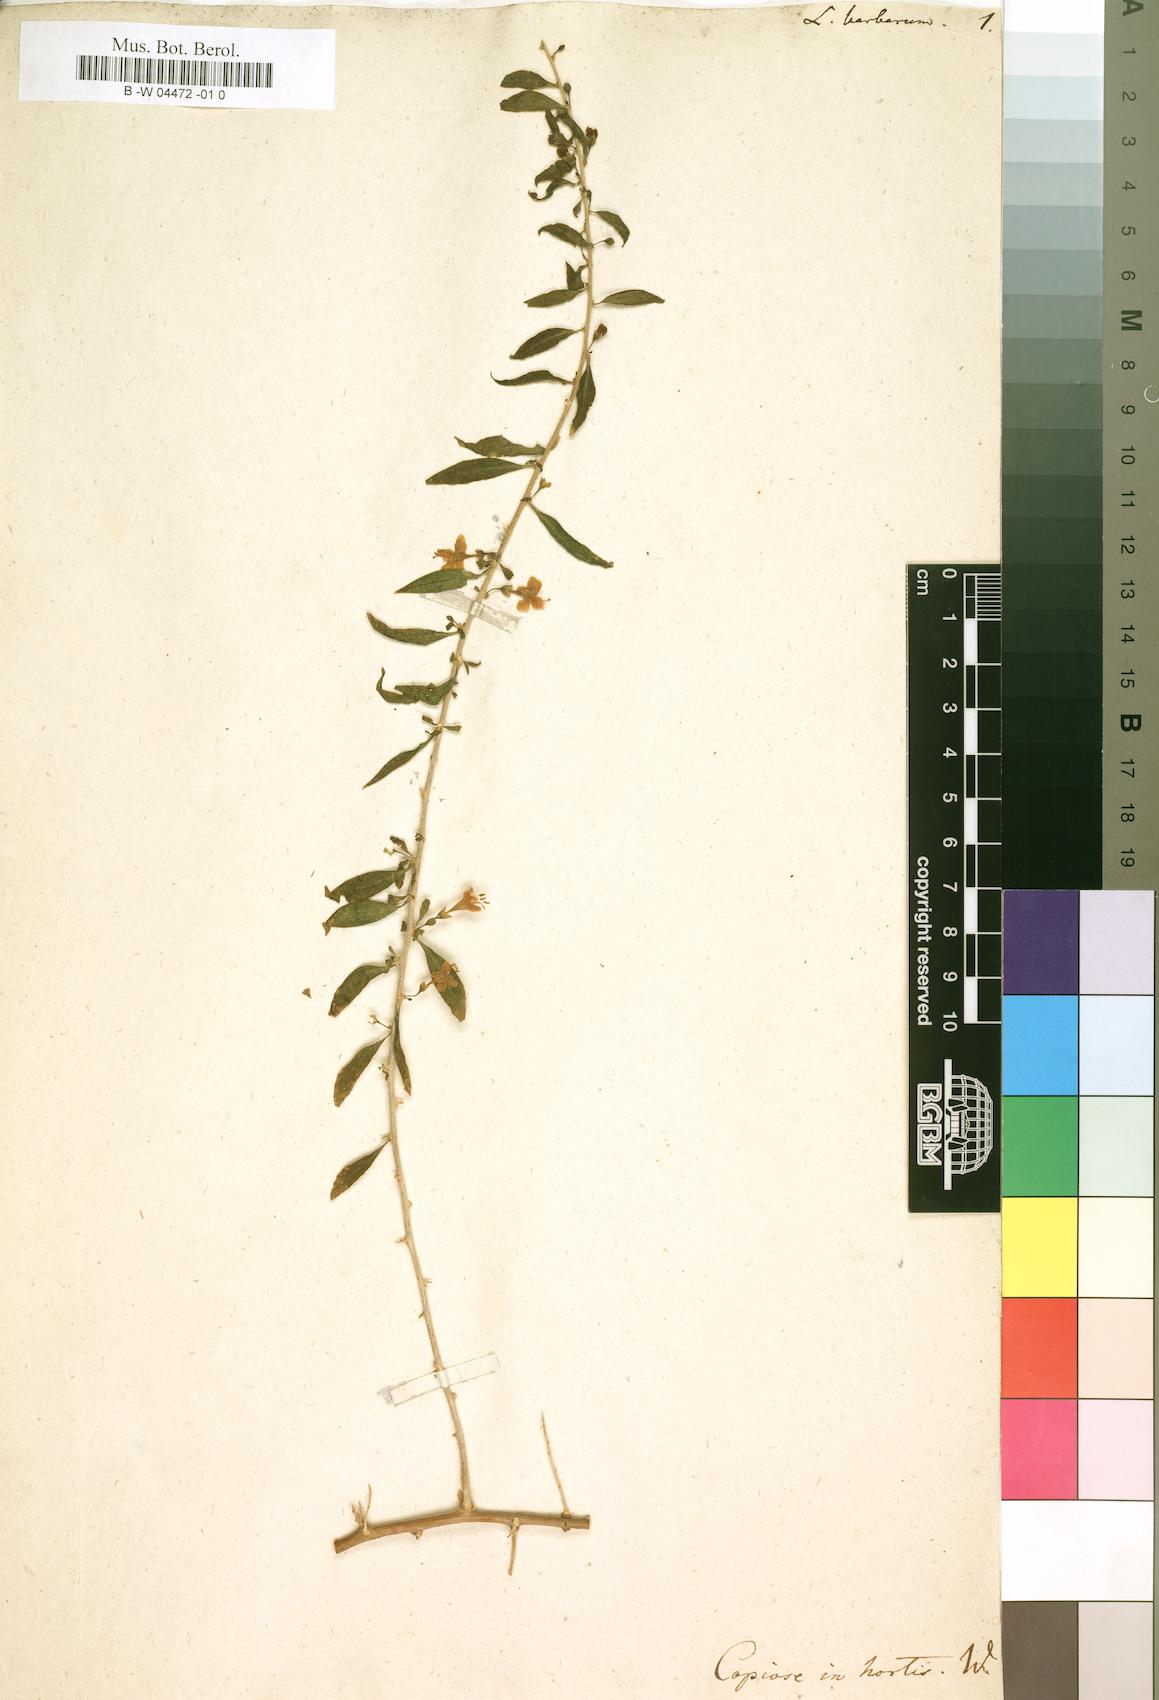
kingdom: Plantae
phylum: Tracheophyta
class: Magnoliopsida
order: Solanales
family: Solanaceae
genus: Lycium
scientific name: Lycium barbarum
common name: Duke of argyll's teaplant
